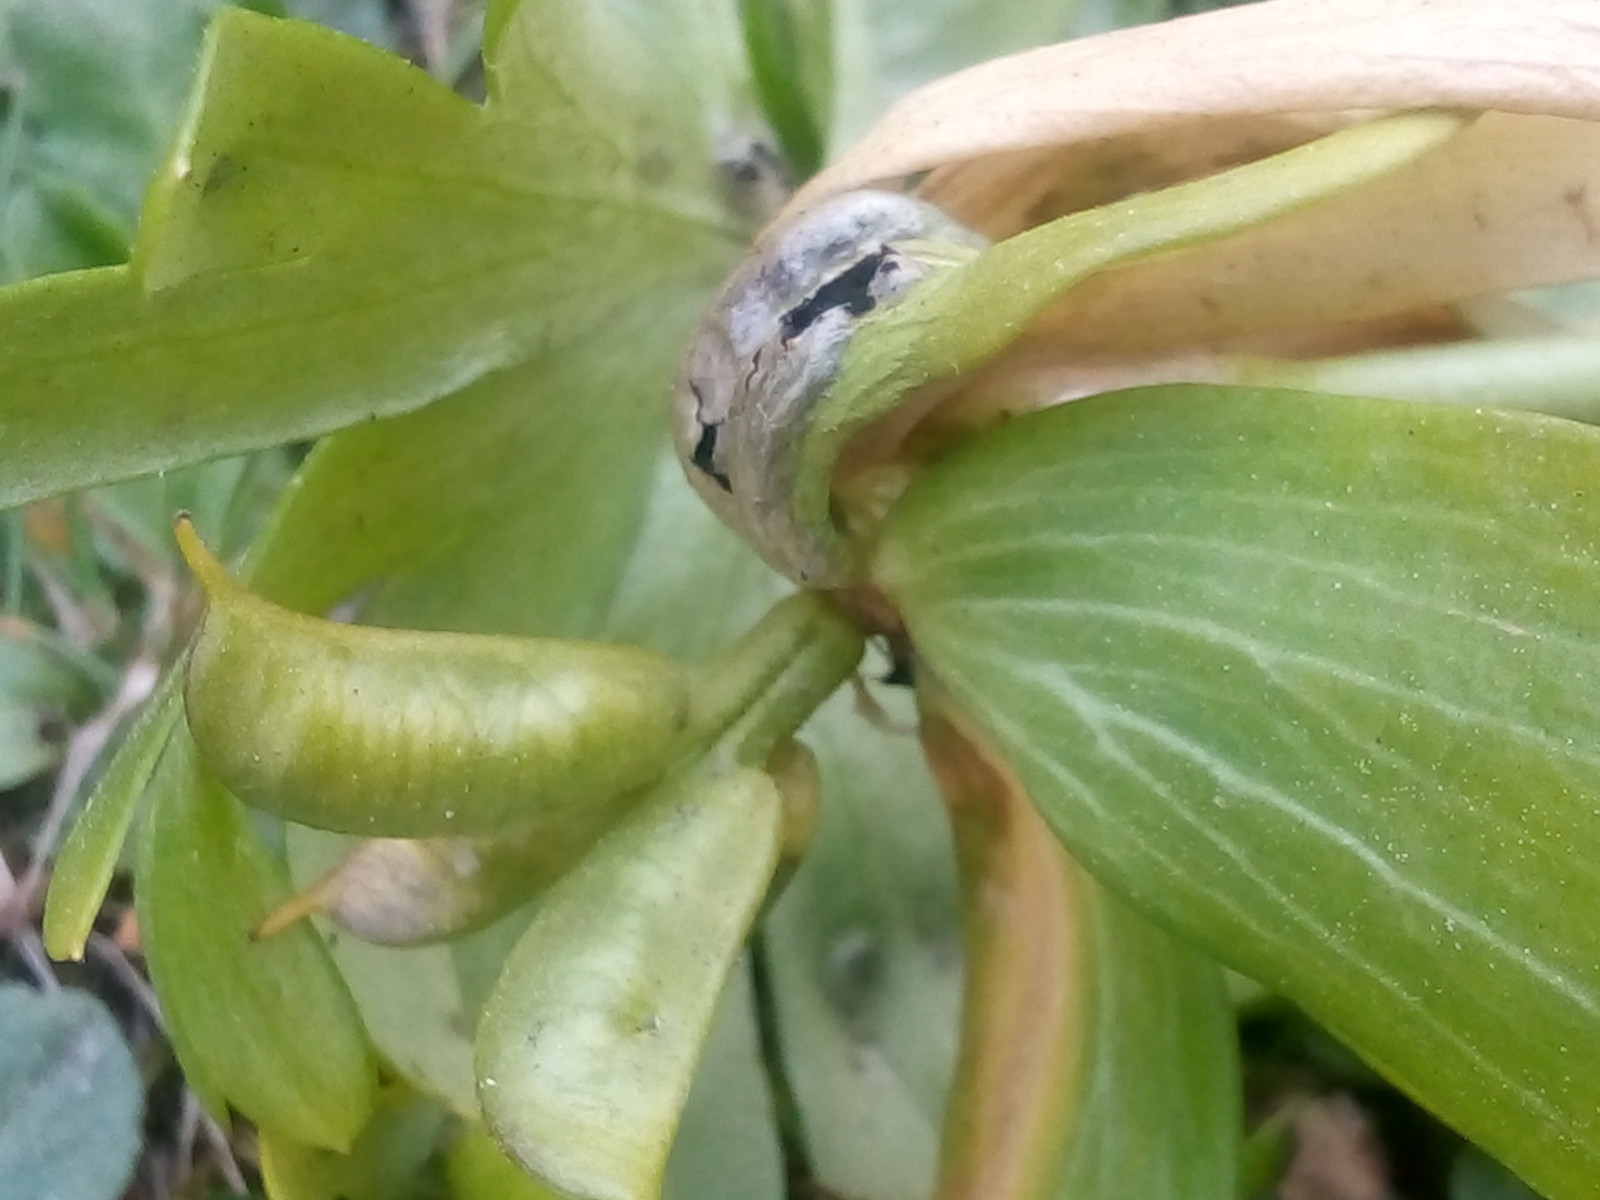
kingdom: Fungi
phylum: Basidiomycota
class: Ustilaginomycetes
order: Urocystidales
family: Urocystidaceae
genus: Urocystis
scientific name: Urocystis eranthidis
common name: erantis-brand
